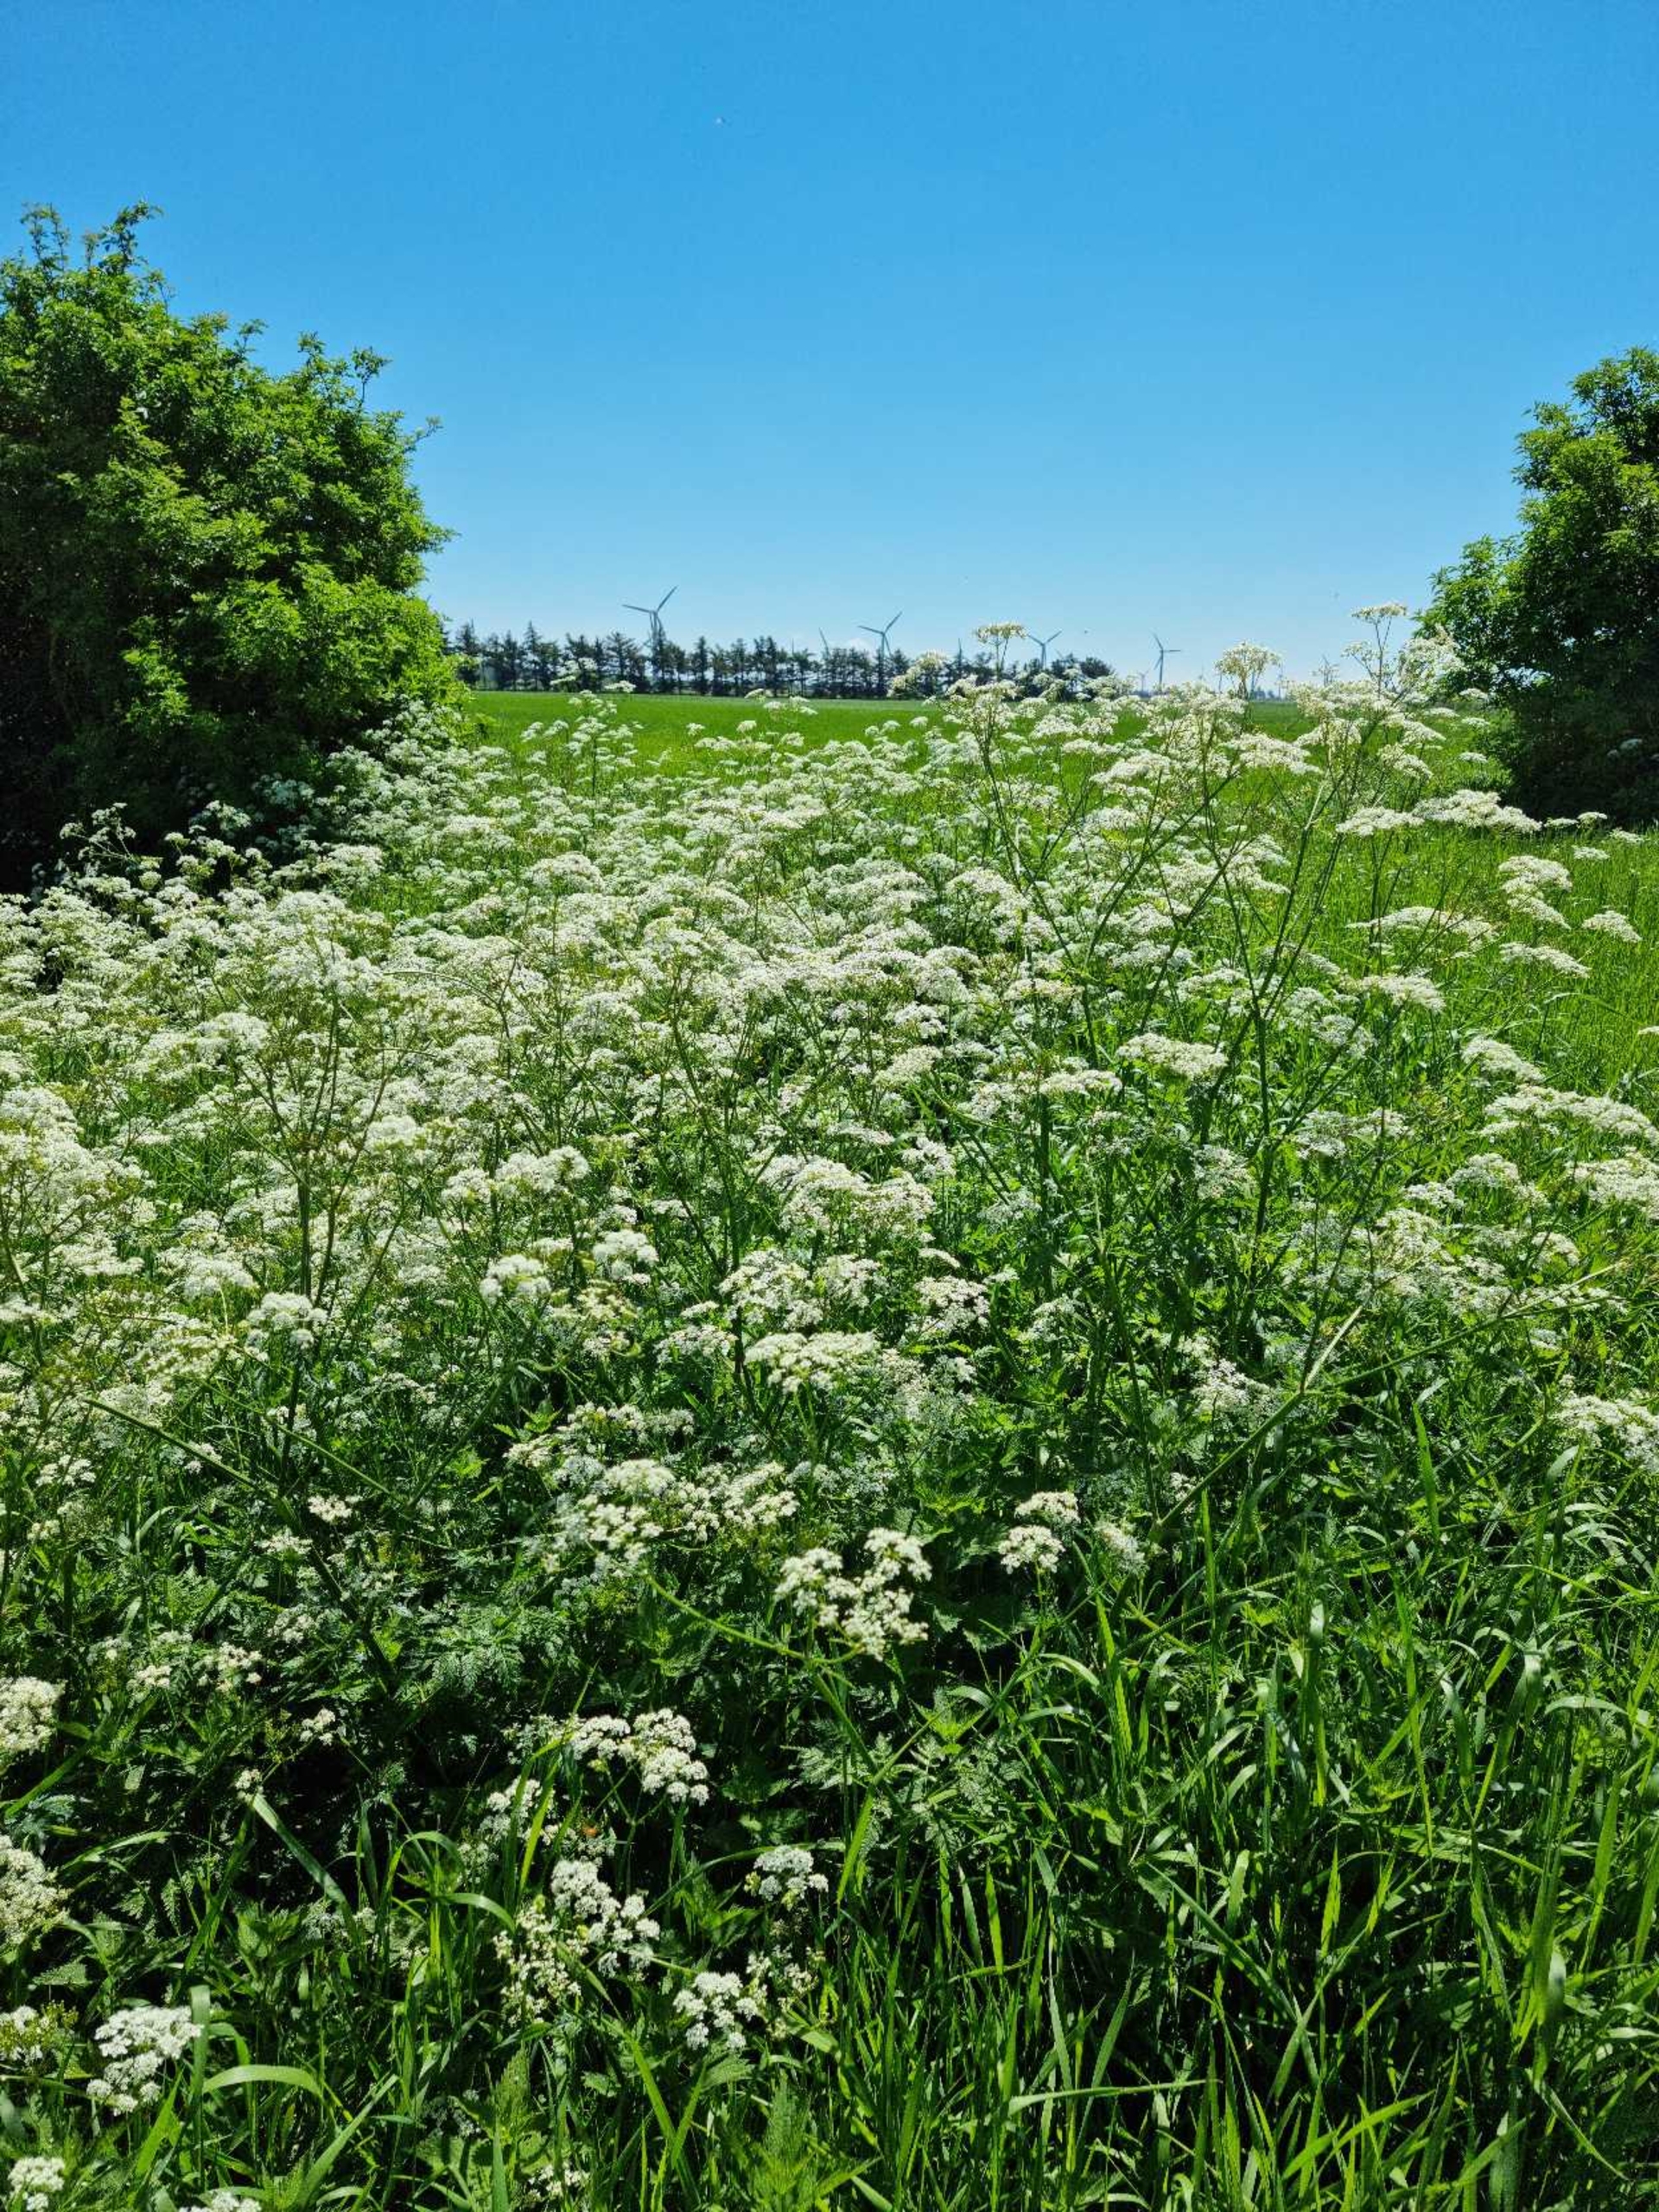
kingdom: Plantae
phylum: Tracheophyta
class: Magnoliopsida
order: Apiales
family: Apiaceae
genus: Anthriscus
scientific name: Anthriscus sylvestris
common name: Vild kørvel
